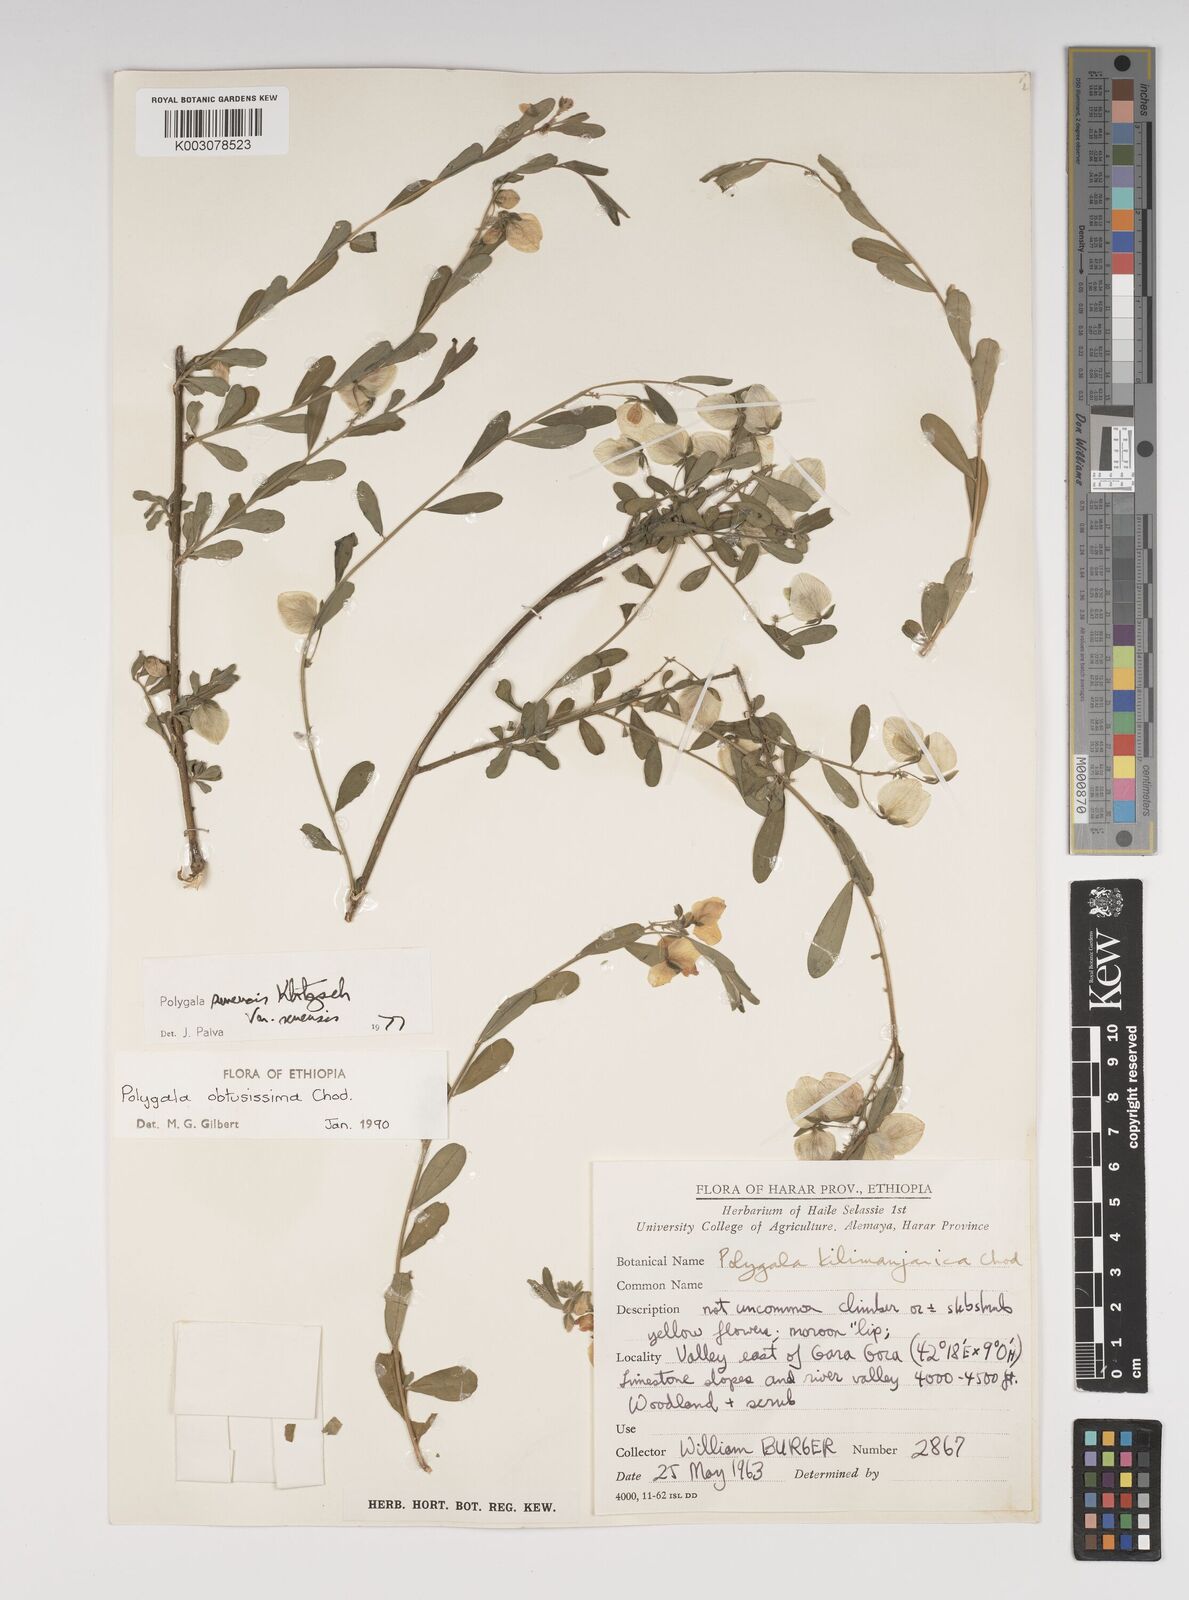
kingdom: Plantae
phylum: Tracheophyta
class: Magnoliopsida
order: Fabales
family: Polygalaceae
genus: Polygala
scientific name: Polygala senensis
